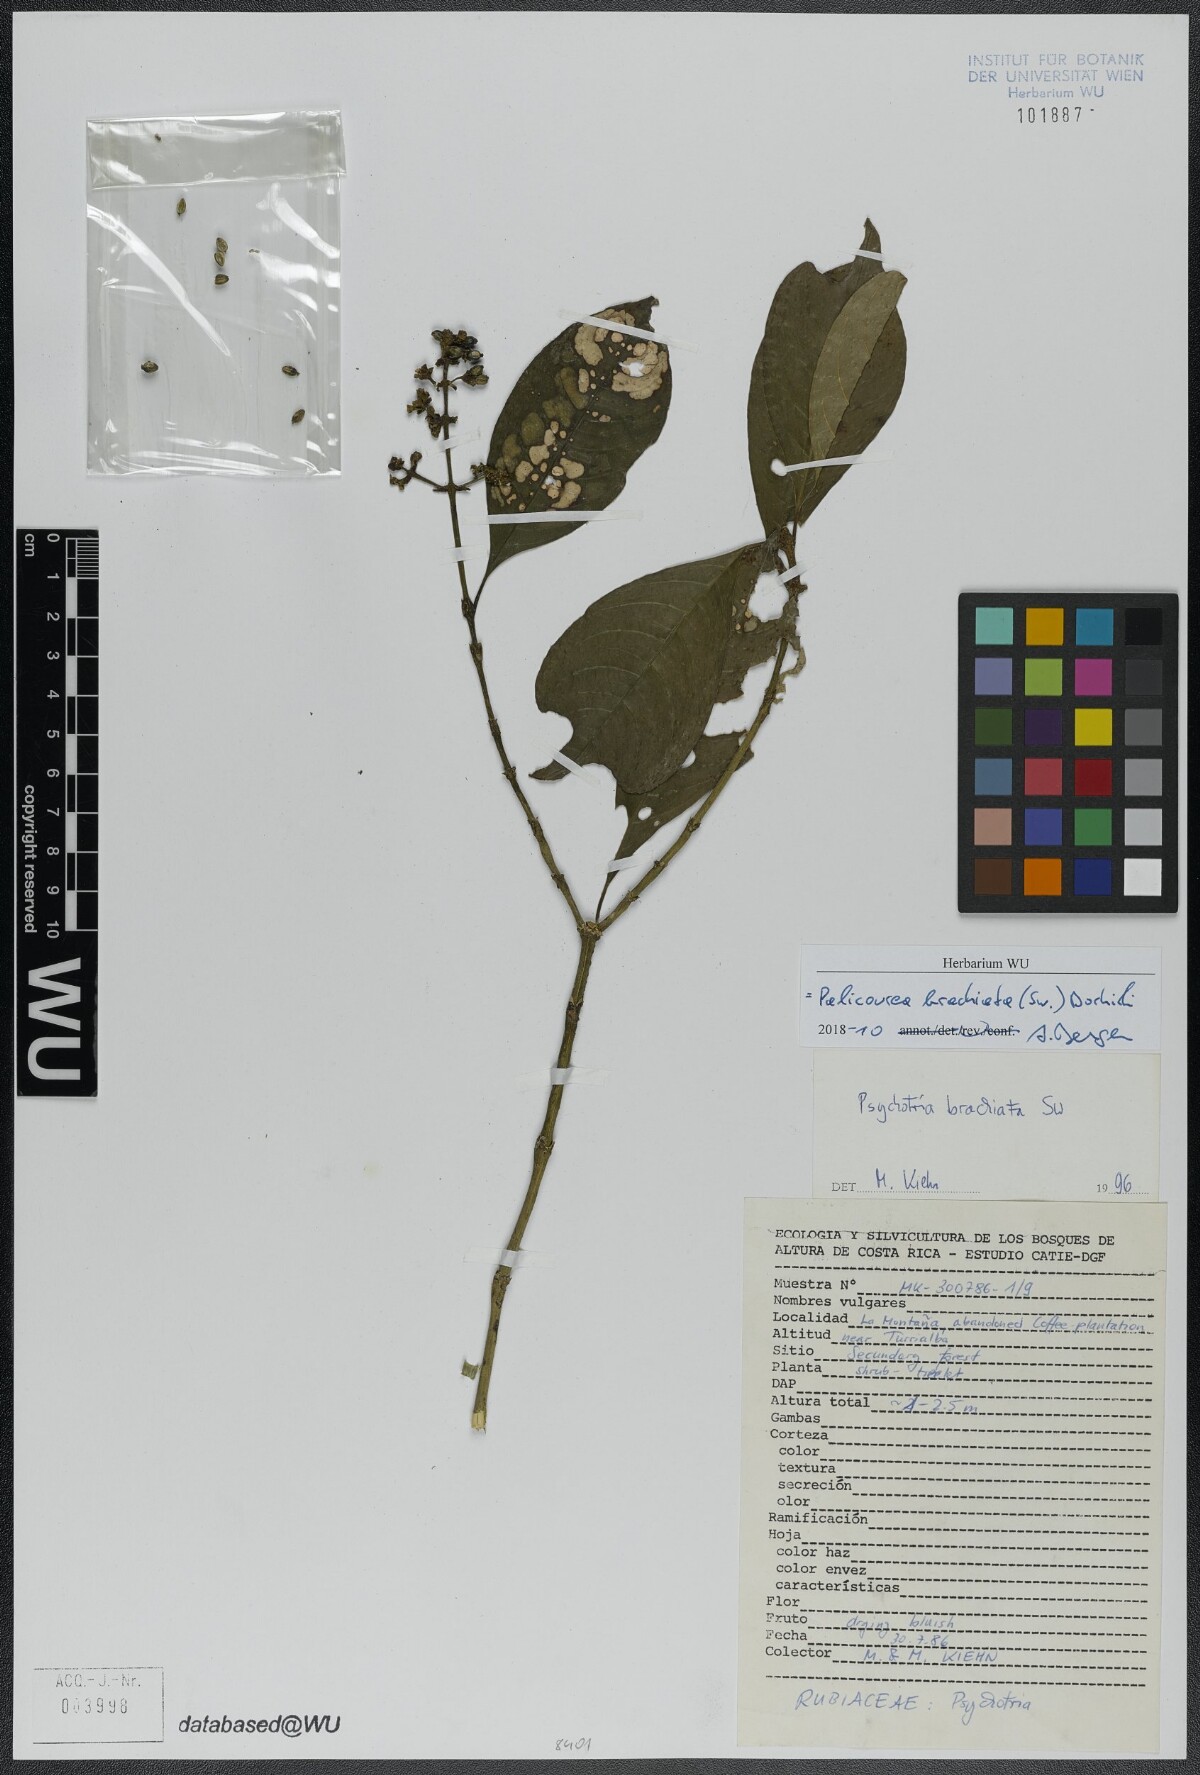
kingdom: Plantae
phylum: Tracheophyta
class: Magnoliopsida
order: Gentianales
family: Rubiaceae
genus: Palicourea
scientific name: Palicourea brachiata
